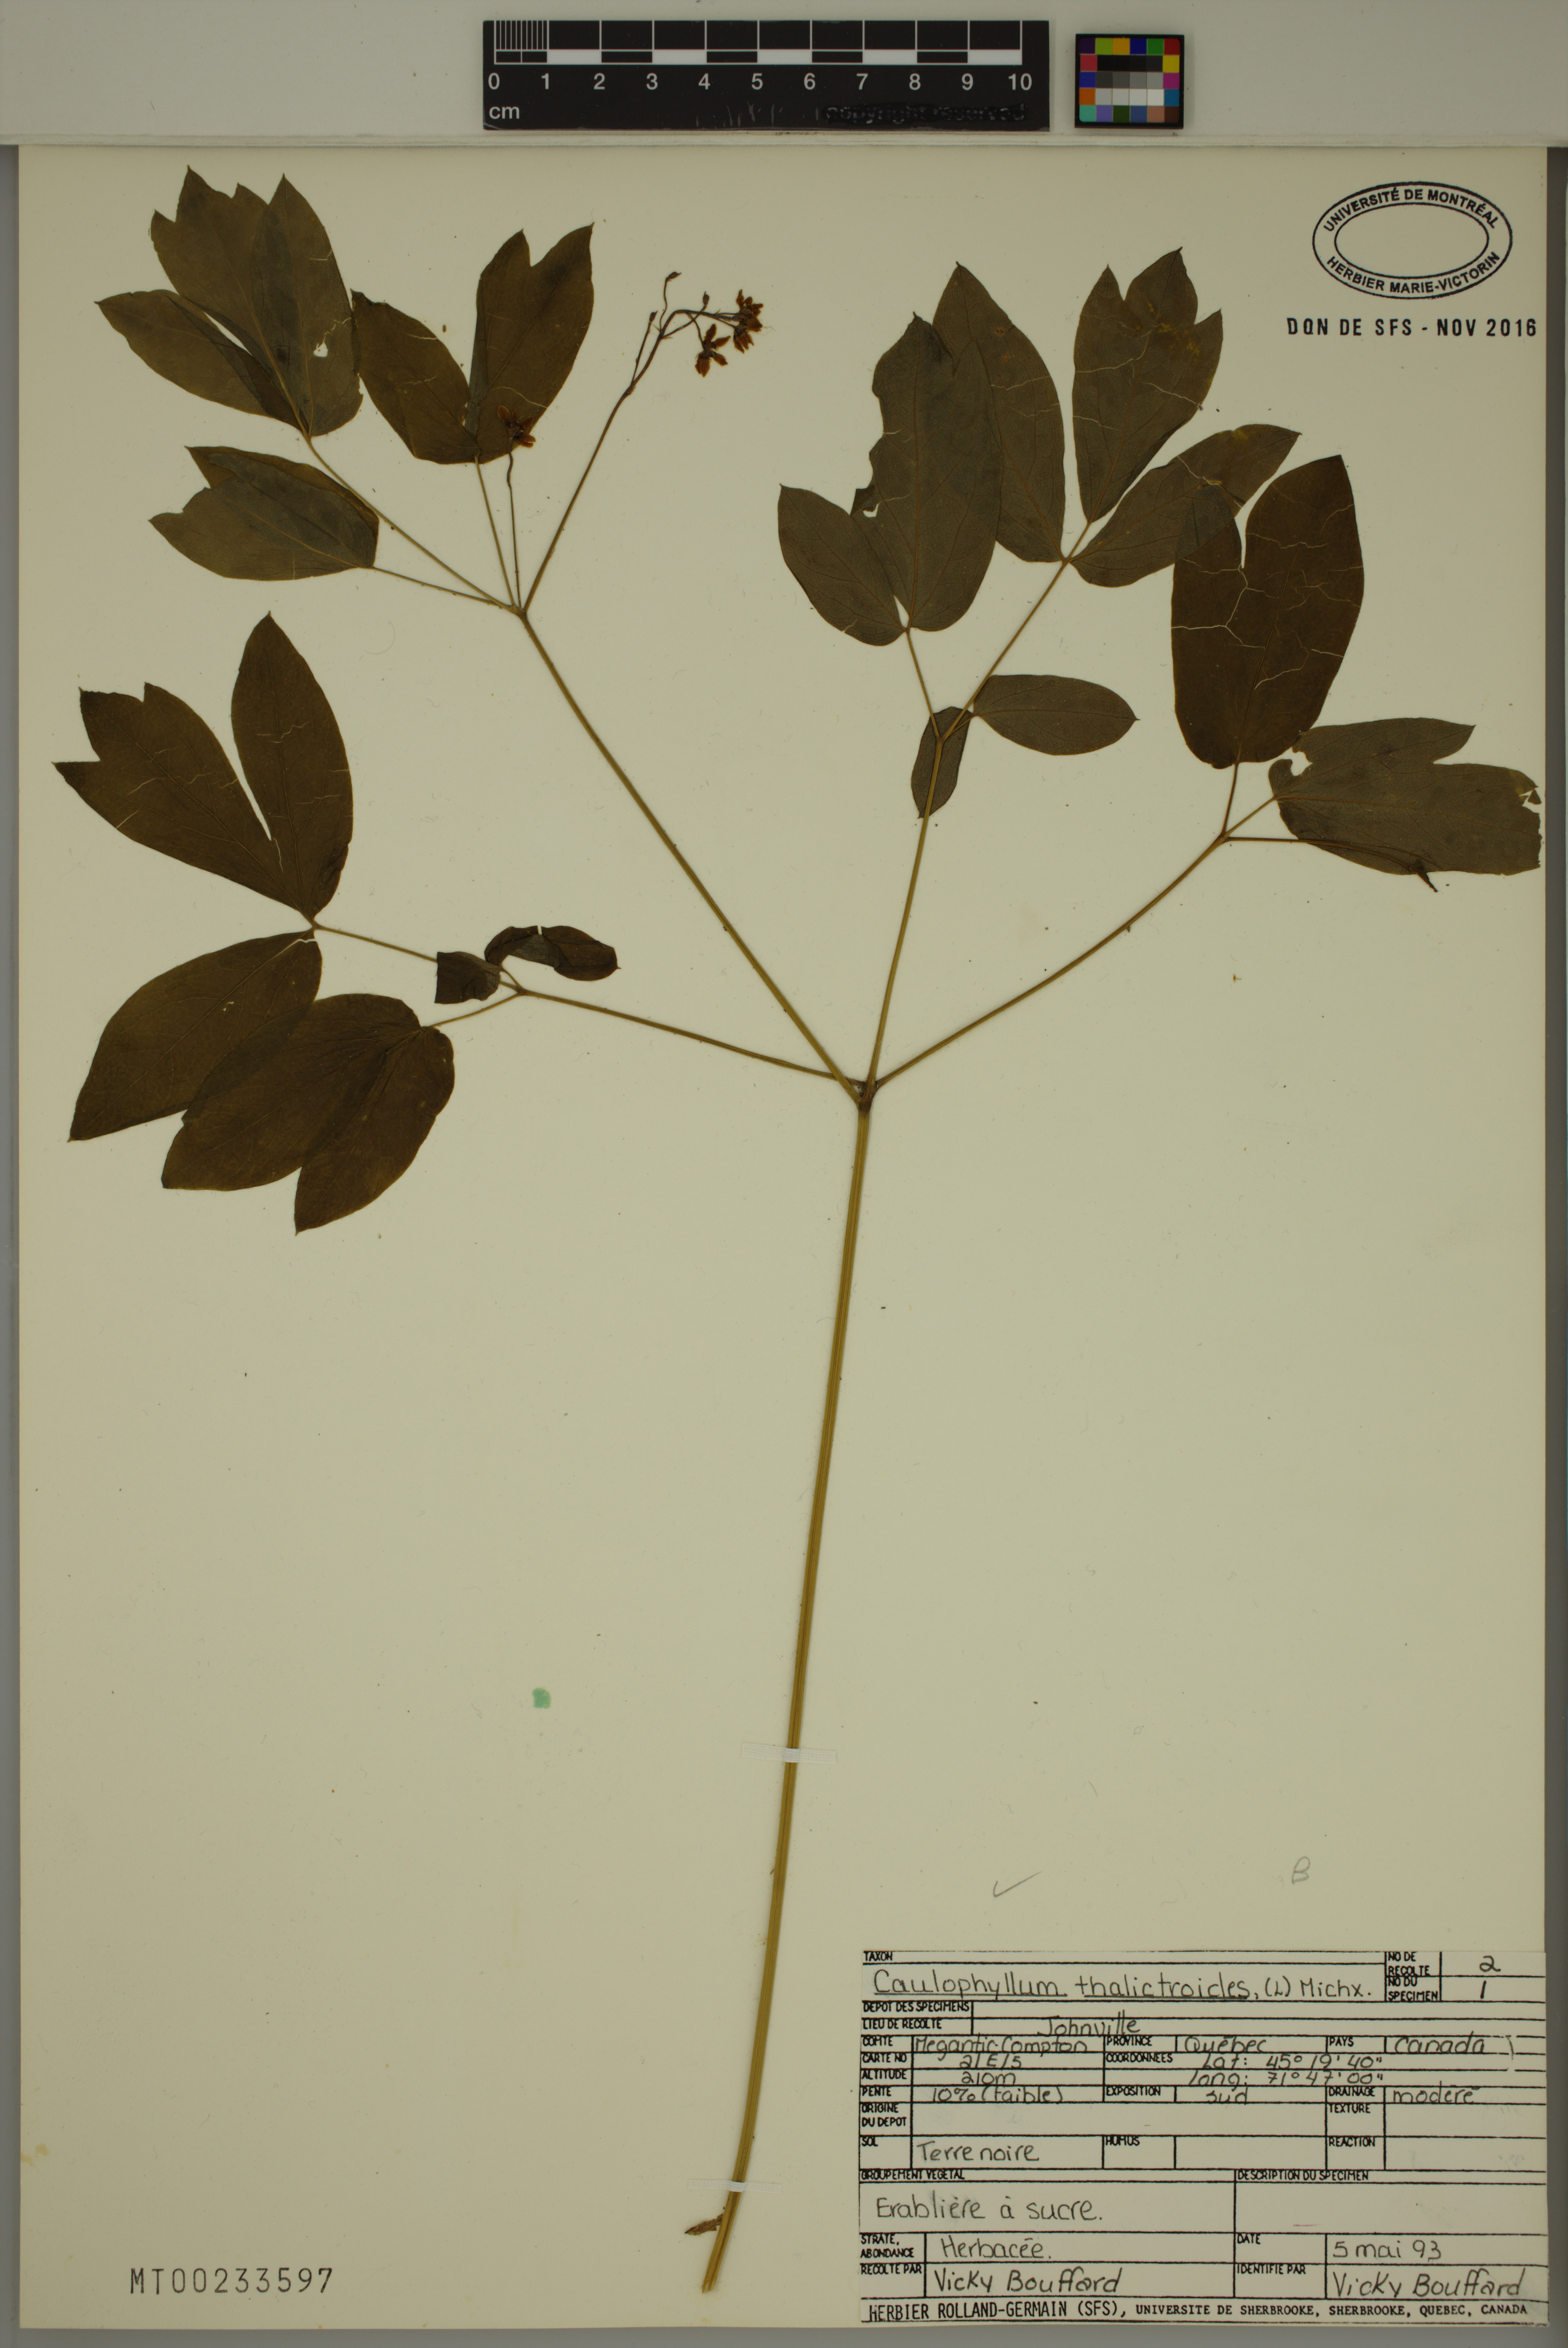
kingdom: Plantae
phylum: Tracheophyta
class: Magnoliopsida
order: Ranunculales
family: Berberidaceae
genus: Caulophyllum
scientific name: Caulophyllum thalictroides
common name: Blue cohosh
